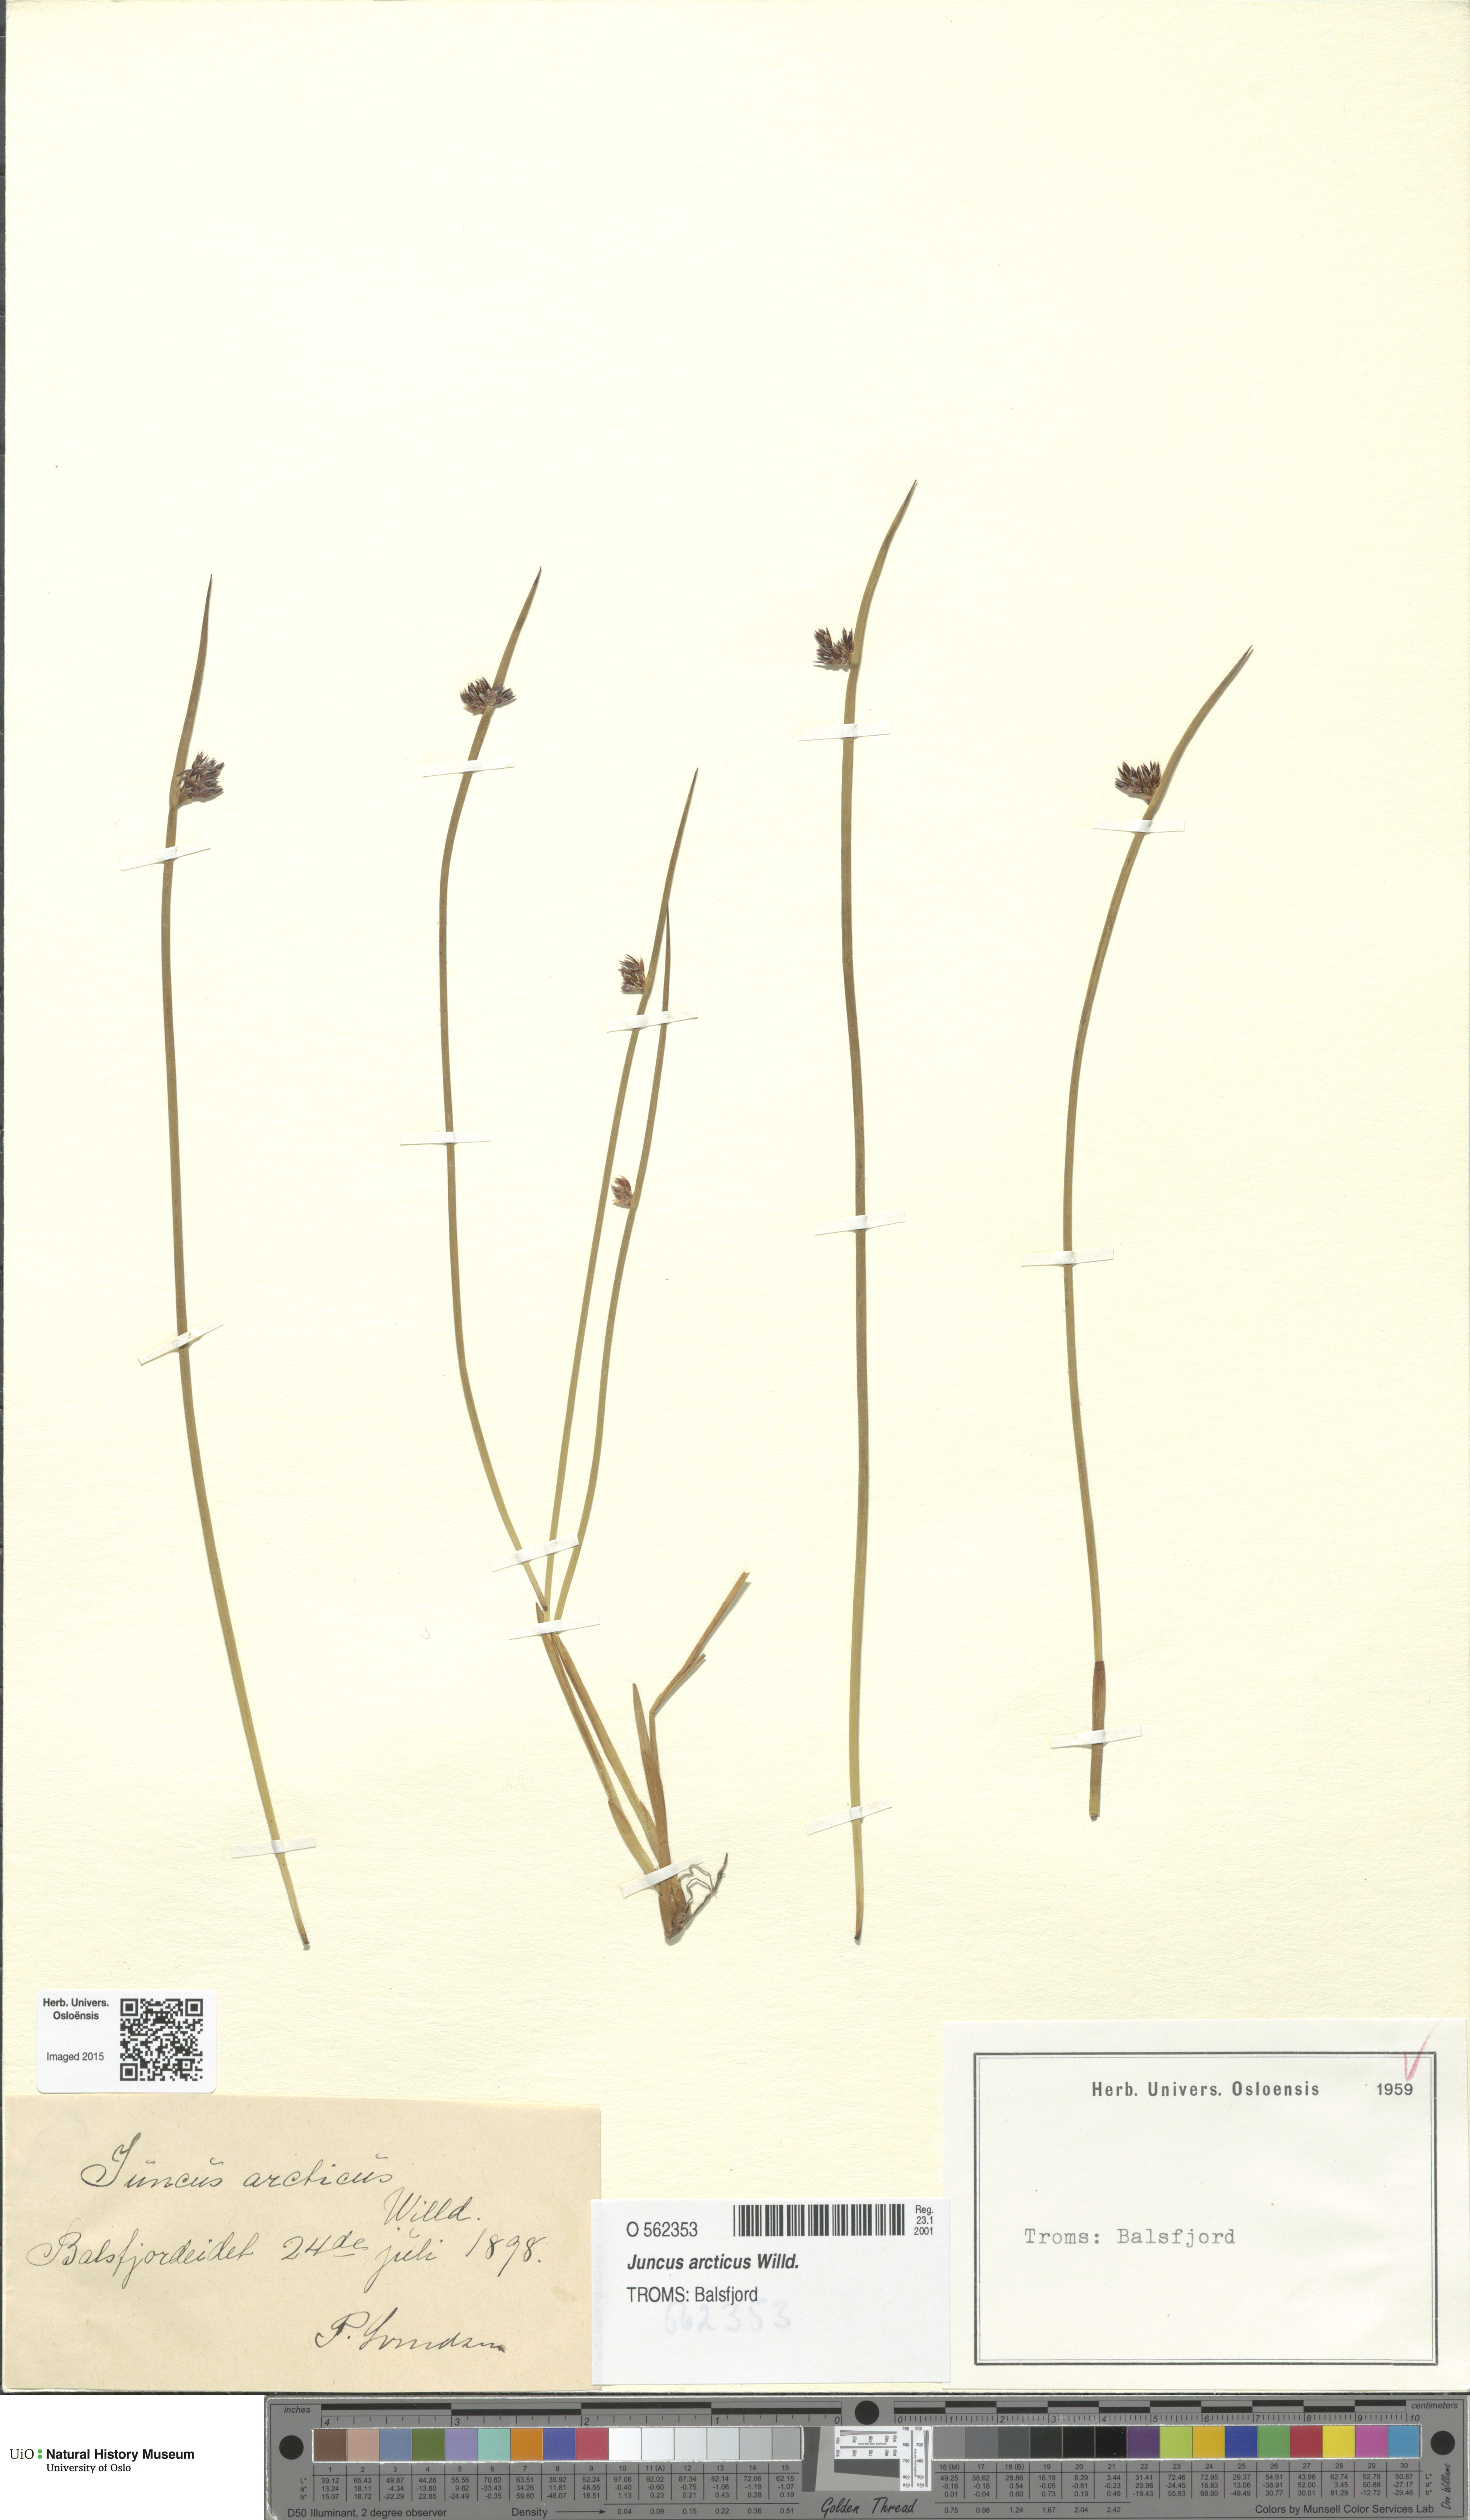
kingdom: Plantae
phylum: Tracheophyta
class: Liliopsida
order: Poales
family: Juncaceae
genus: Juncus
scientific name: Juncus arcticus
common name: Arctic rush
